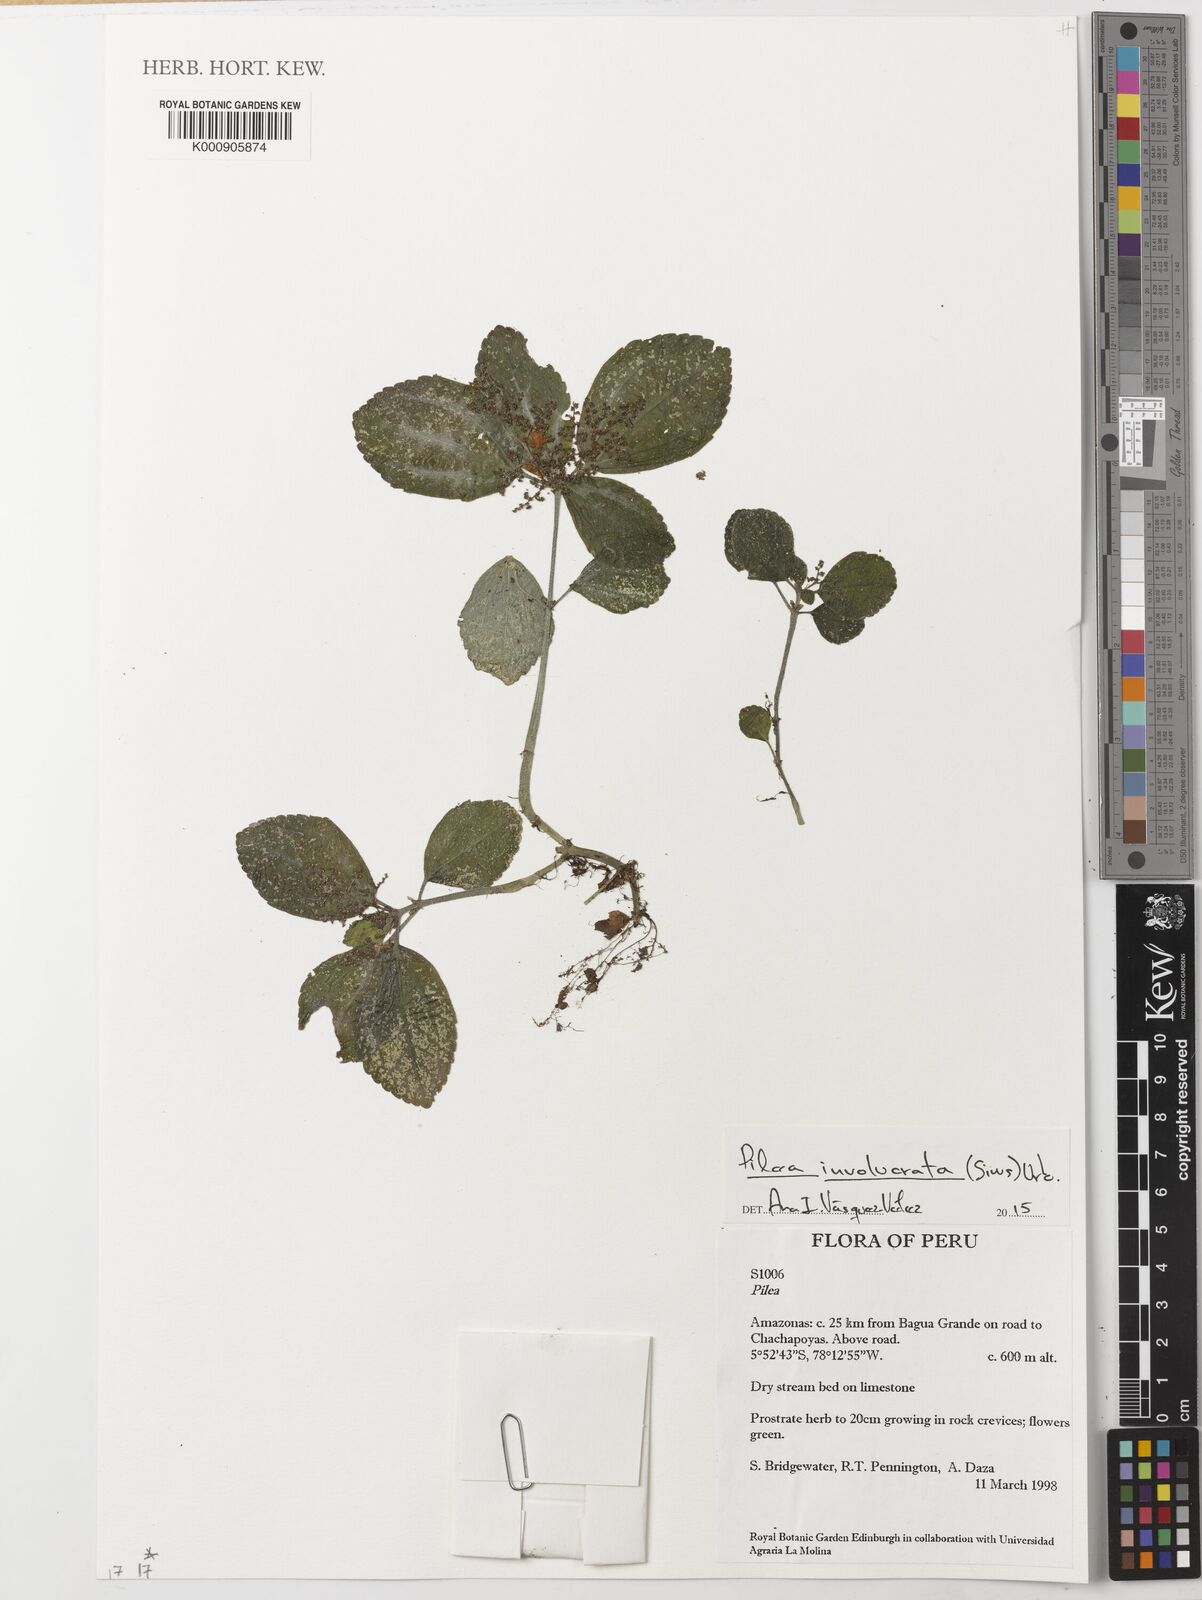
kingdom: Plantae
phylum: Tracheophyta
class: Magnoliopsida
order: Rosales
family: Urticaceae
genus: Pilea
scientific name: Pilea
